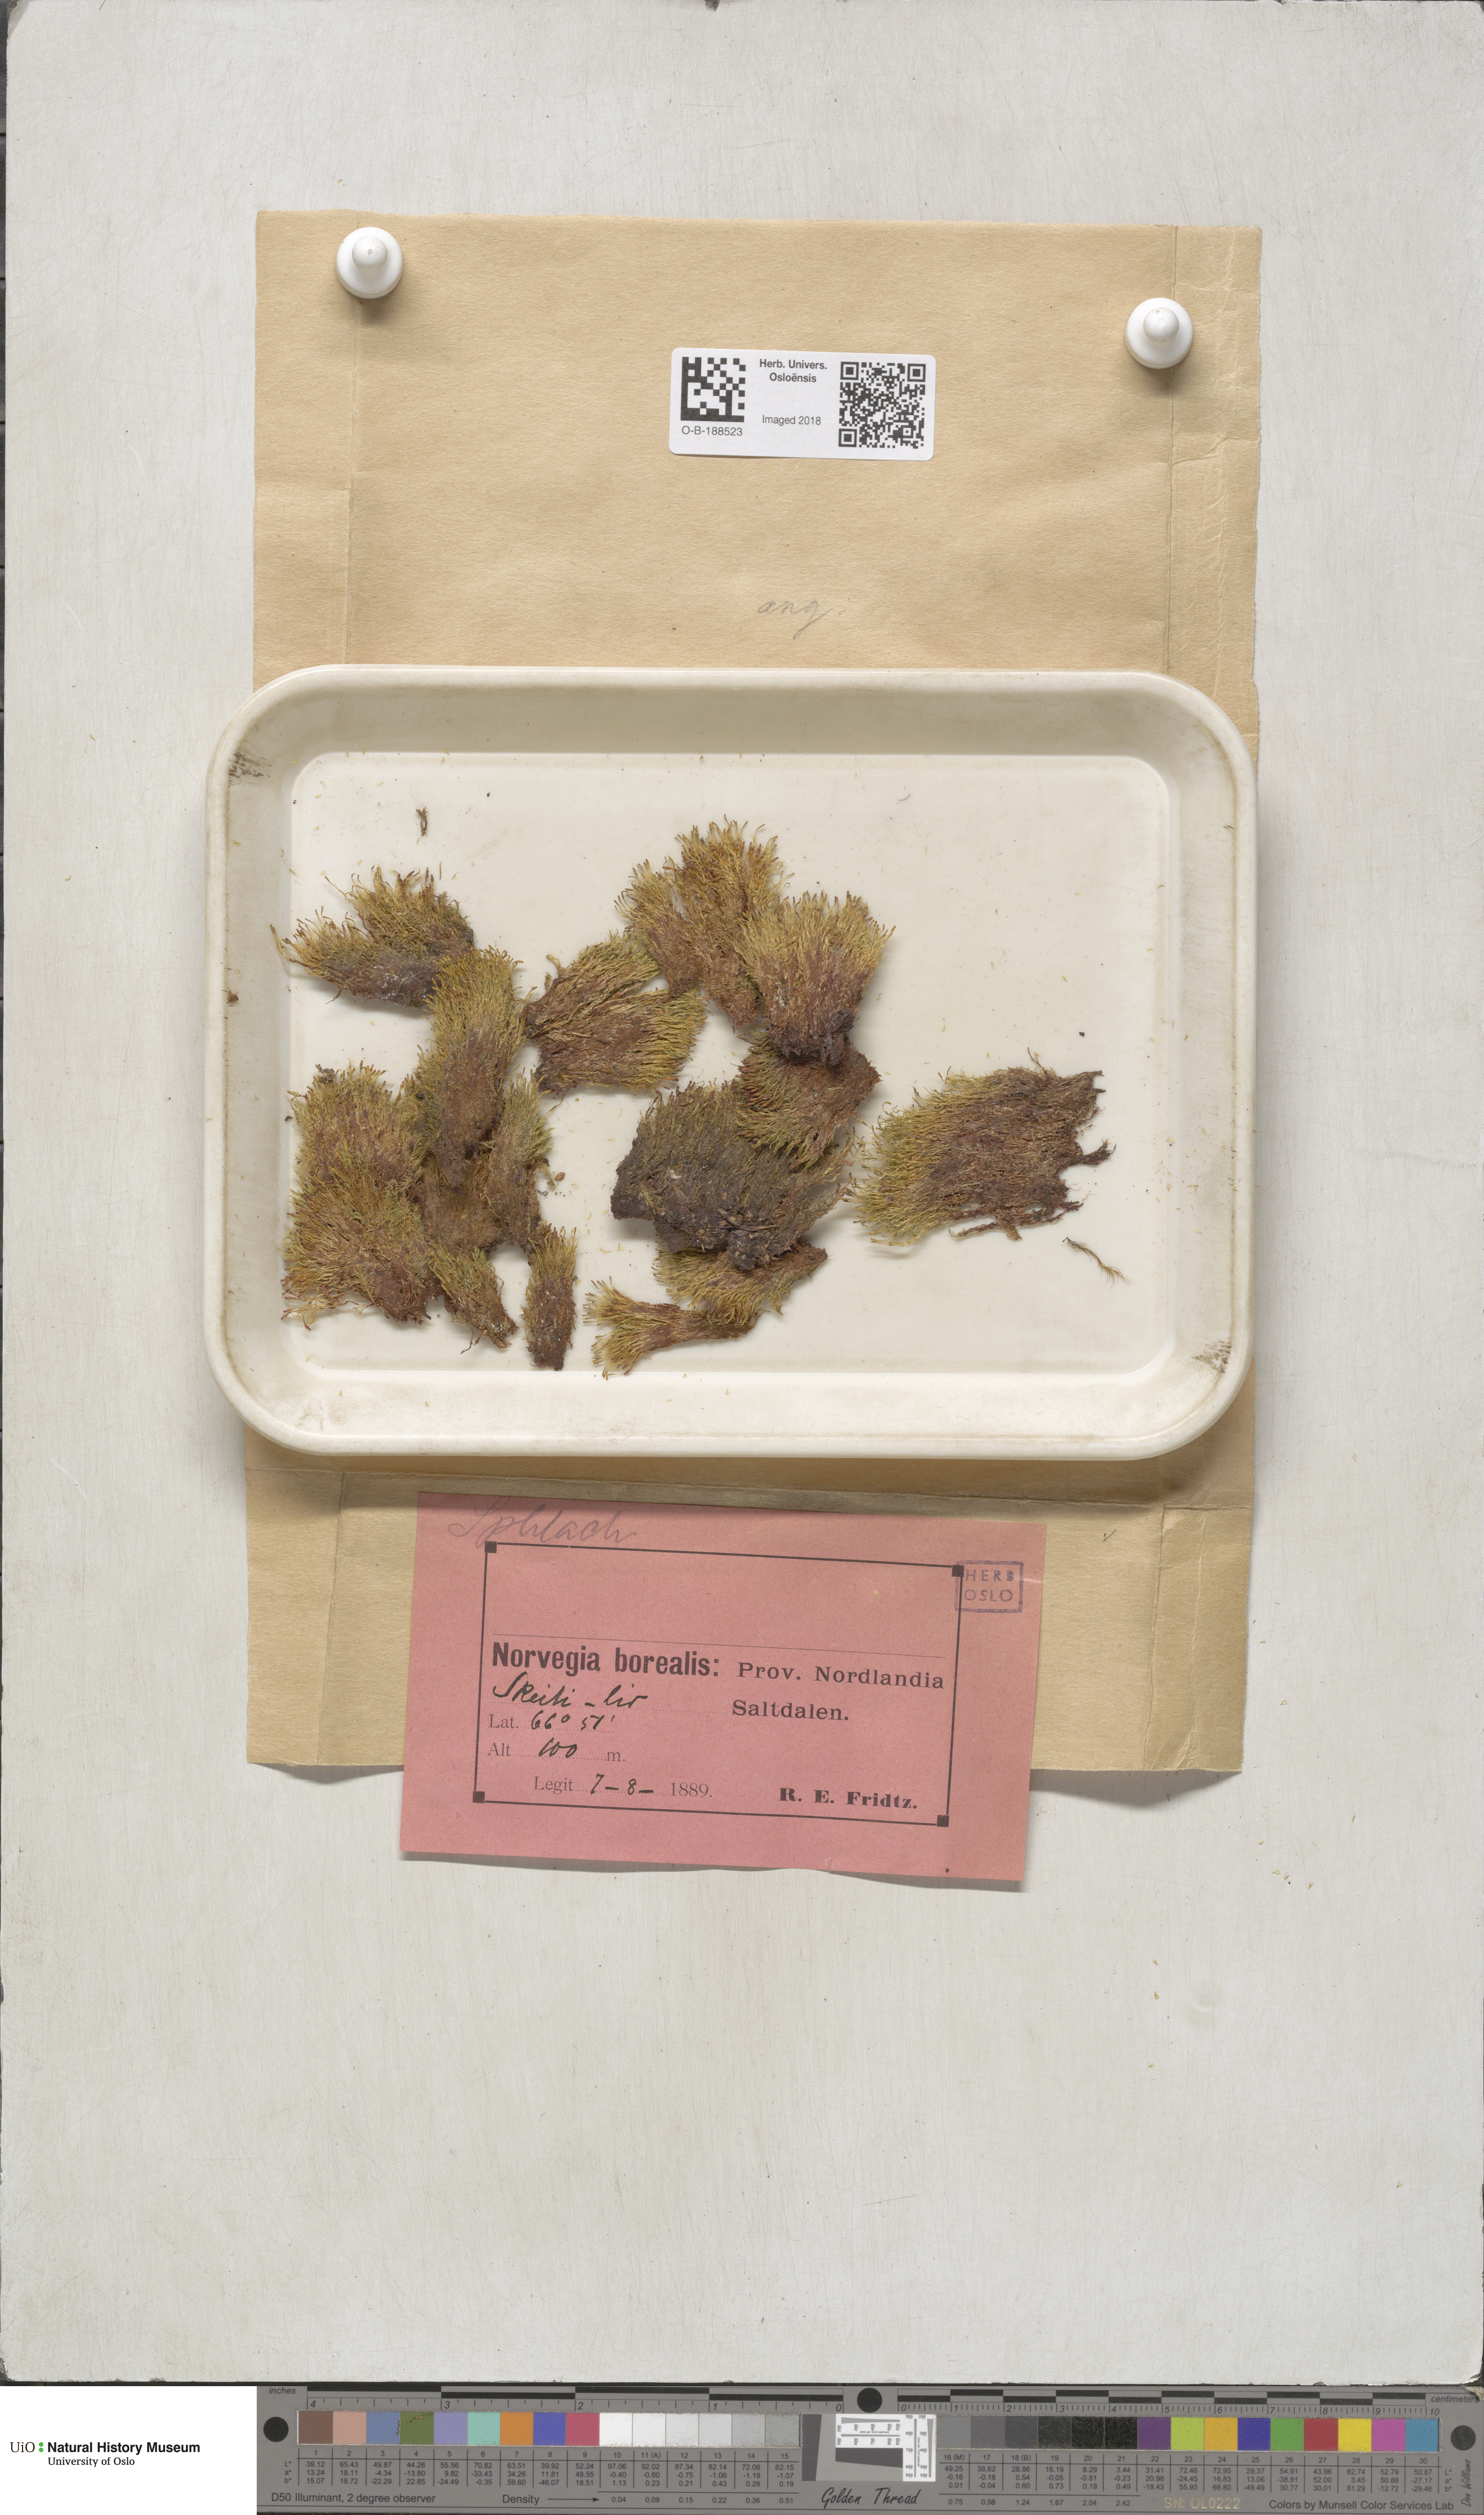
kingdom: Plantae
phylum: Bryophyta
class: Bryopsida
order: Splachnales
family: Splachnaceae
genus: Tetraplodon
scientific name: Tetraplodon angustatus
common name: Narrow cruet-moss
